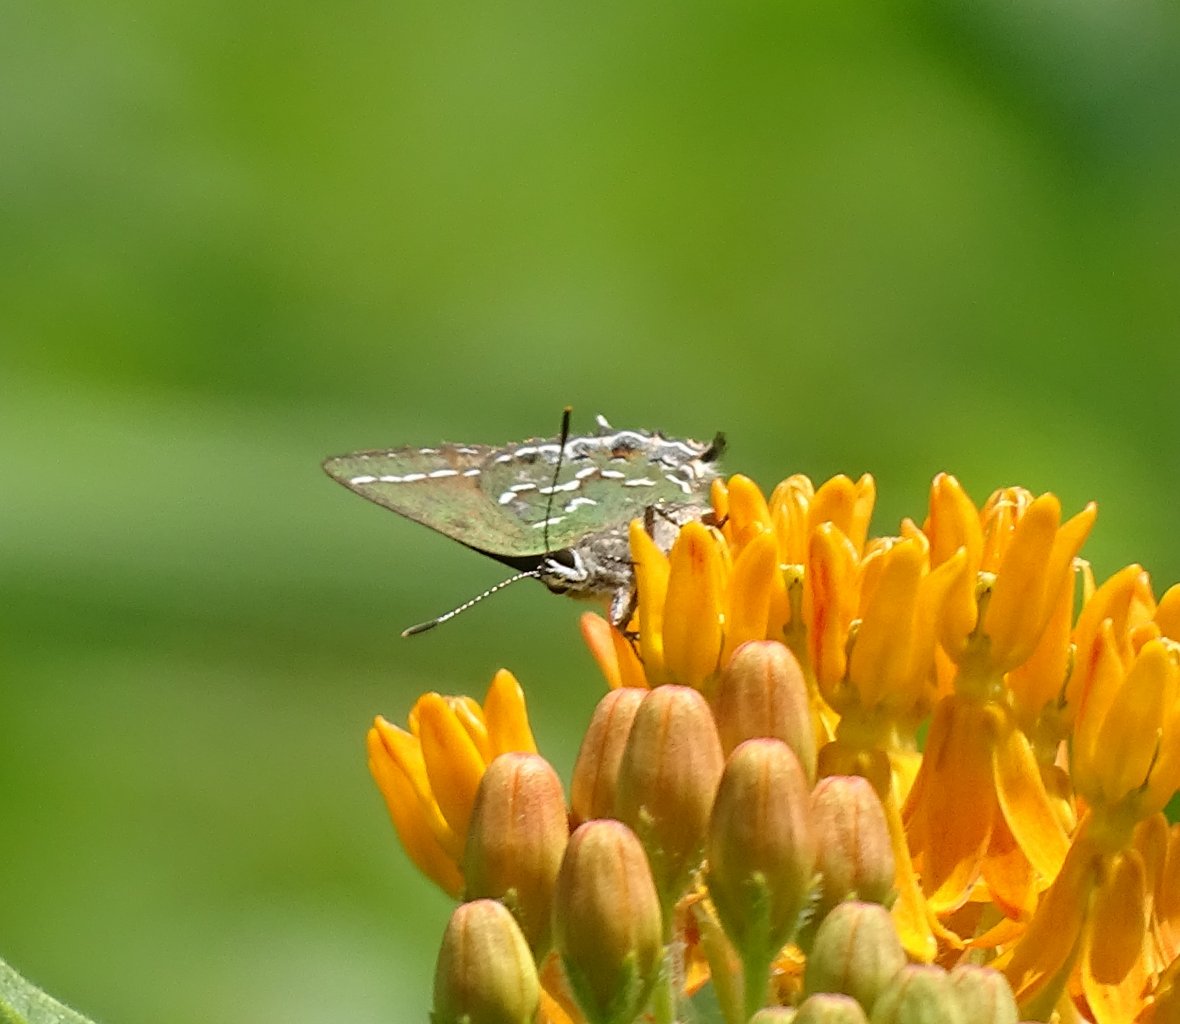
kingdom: Animalia
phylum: Arthropoda
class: Insecta
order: Lepidoptera
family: Lycaenidae
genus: Mitoura
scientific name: Mitoura gryneus
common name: Juniper Hairstreak
